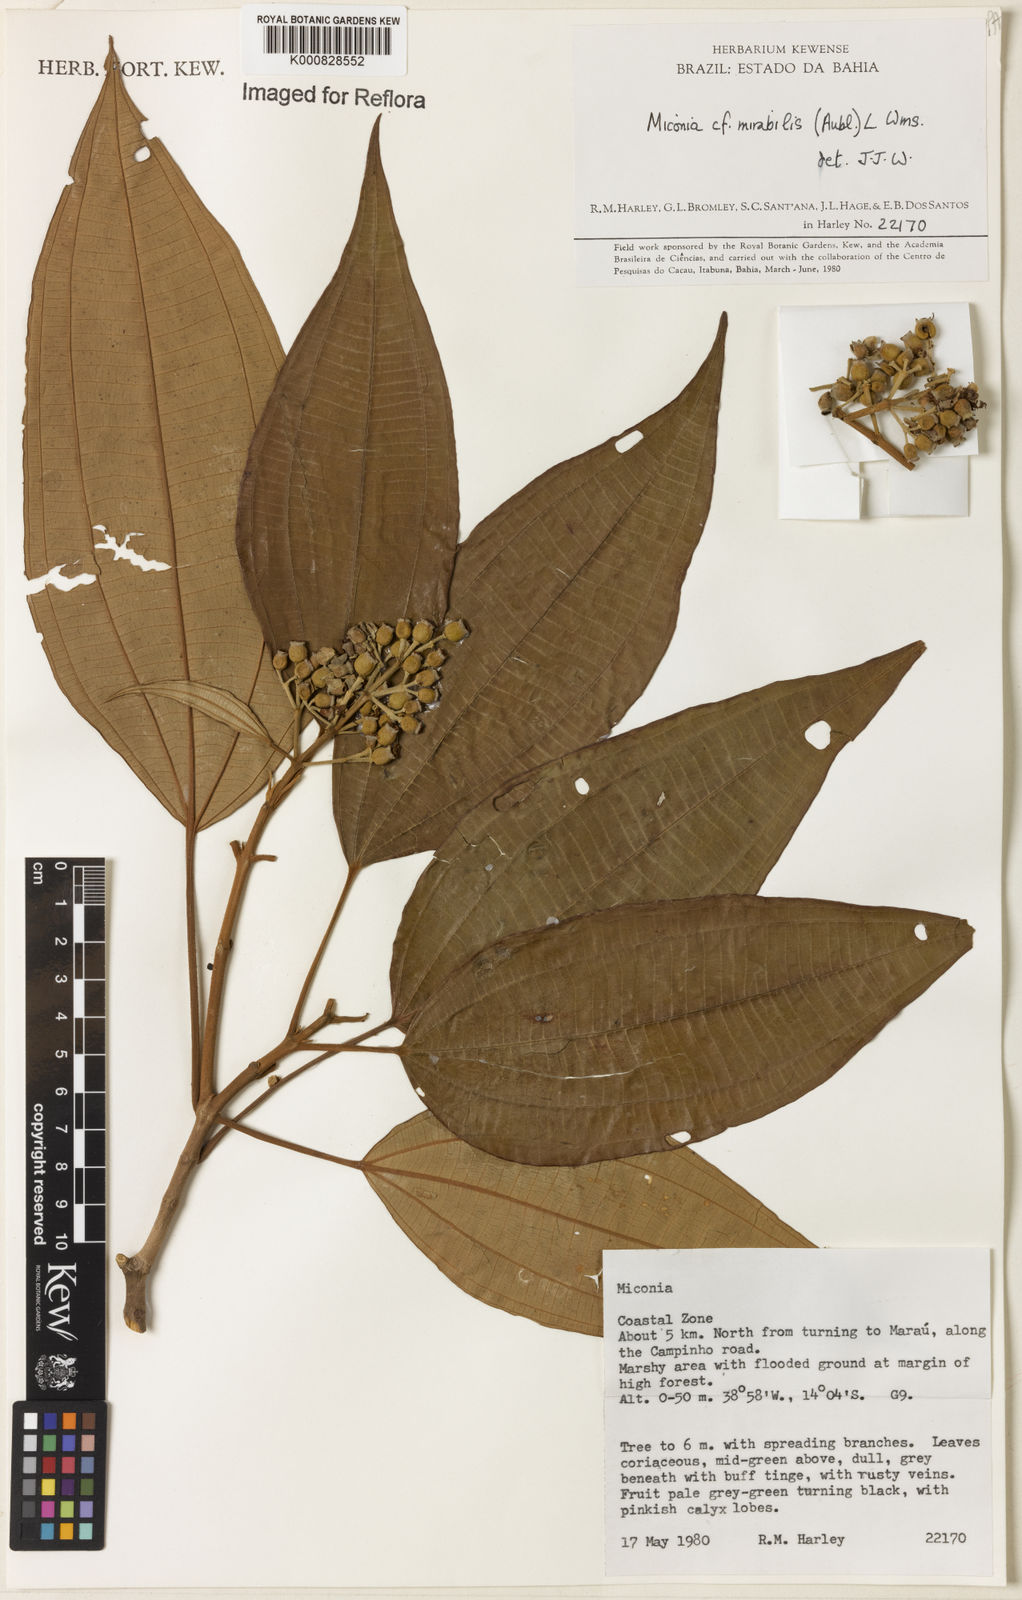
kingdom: Plantae
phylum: Tracheophyta
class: Magnoliopsida
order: Myrtales
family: Melastomataceae
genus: Miconia
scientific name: Miconia mirabilis
